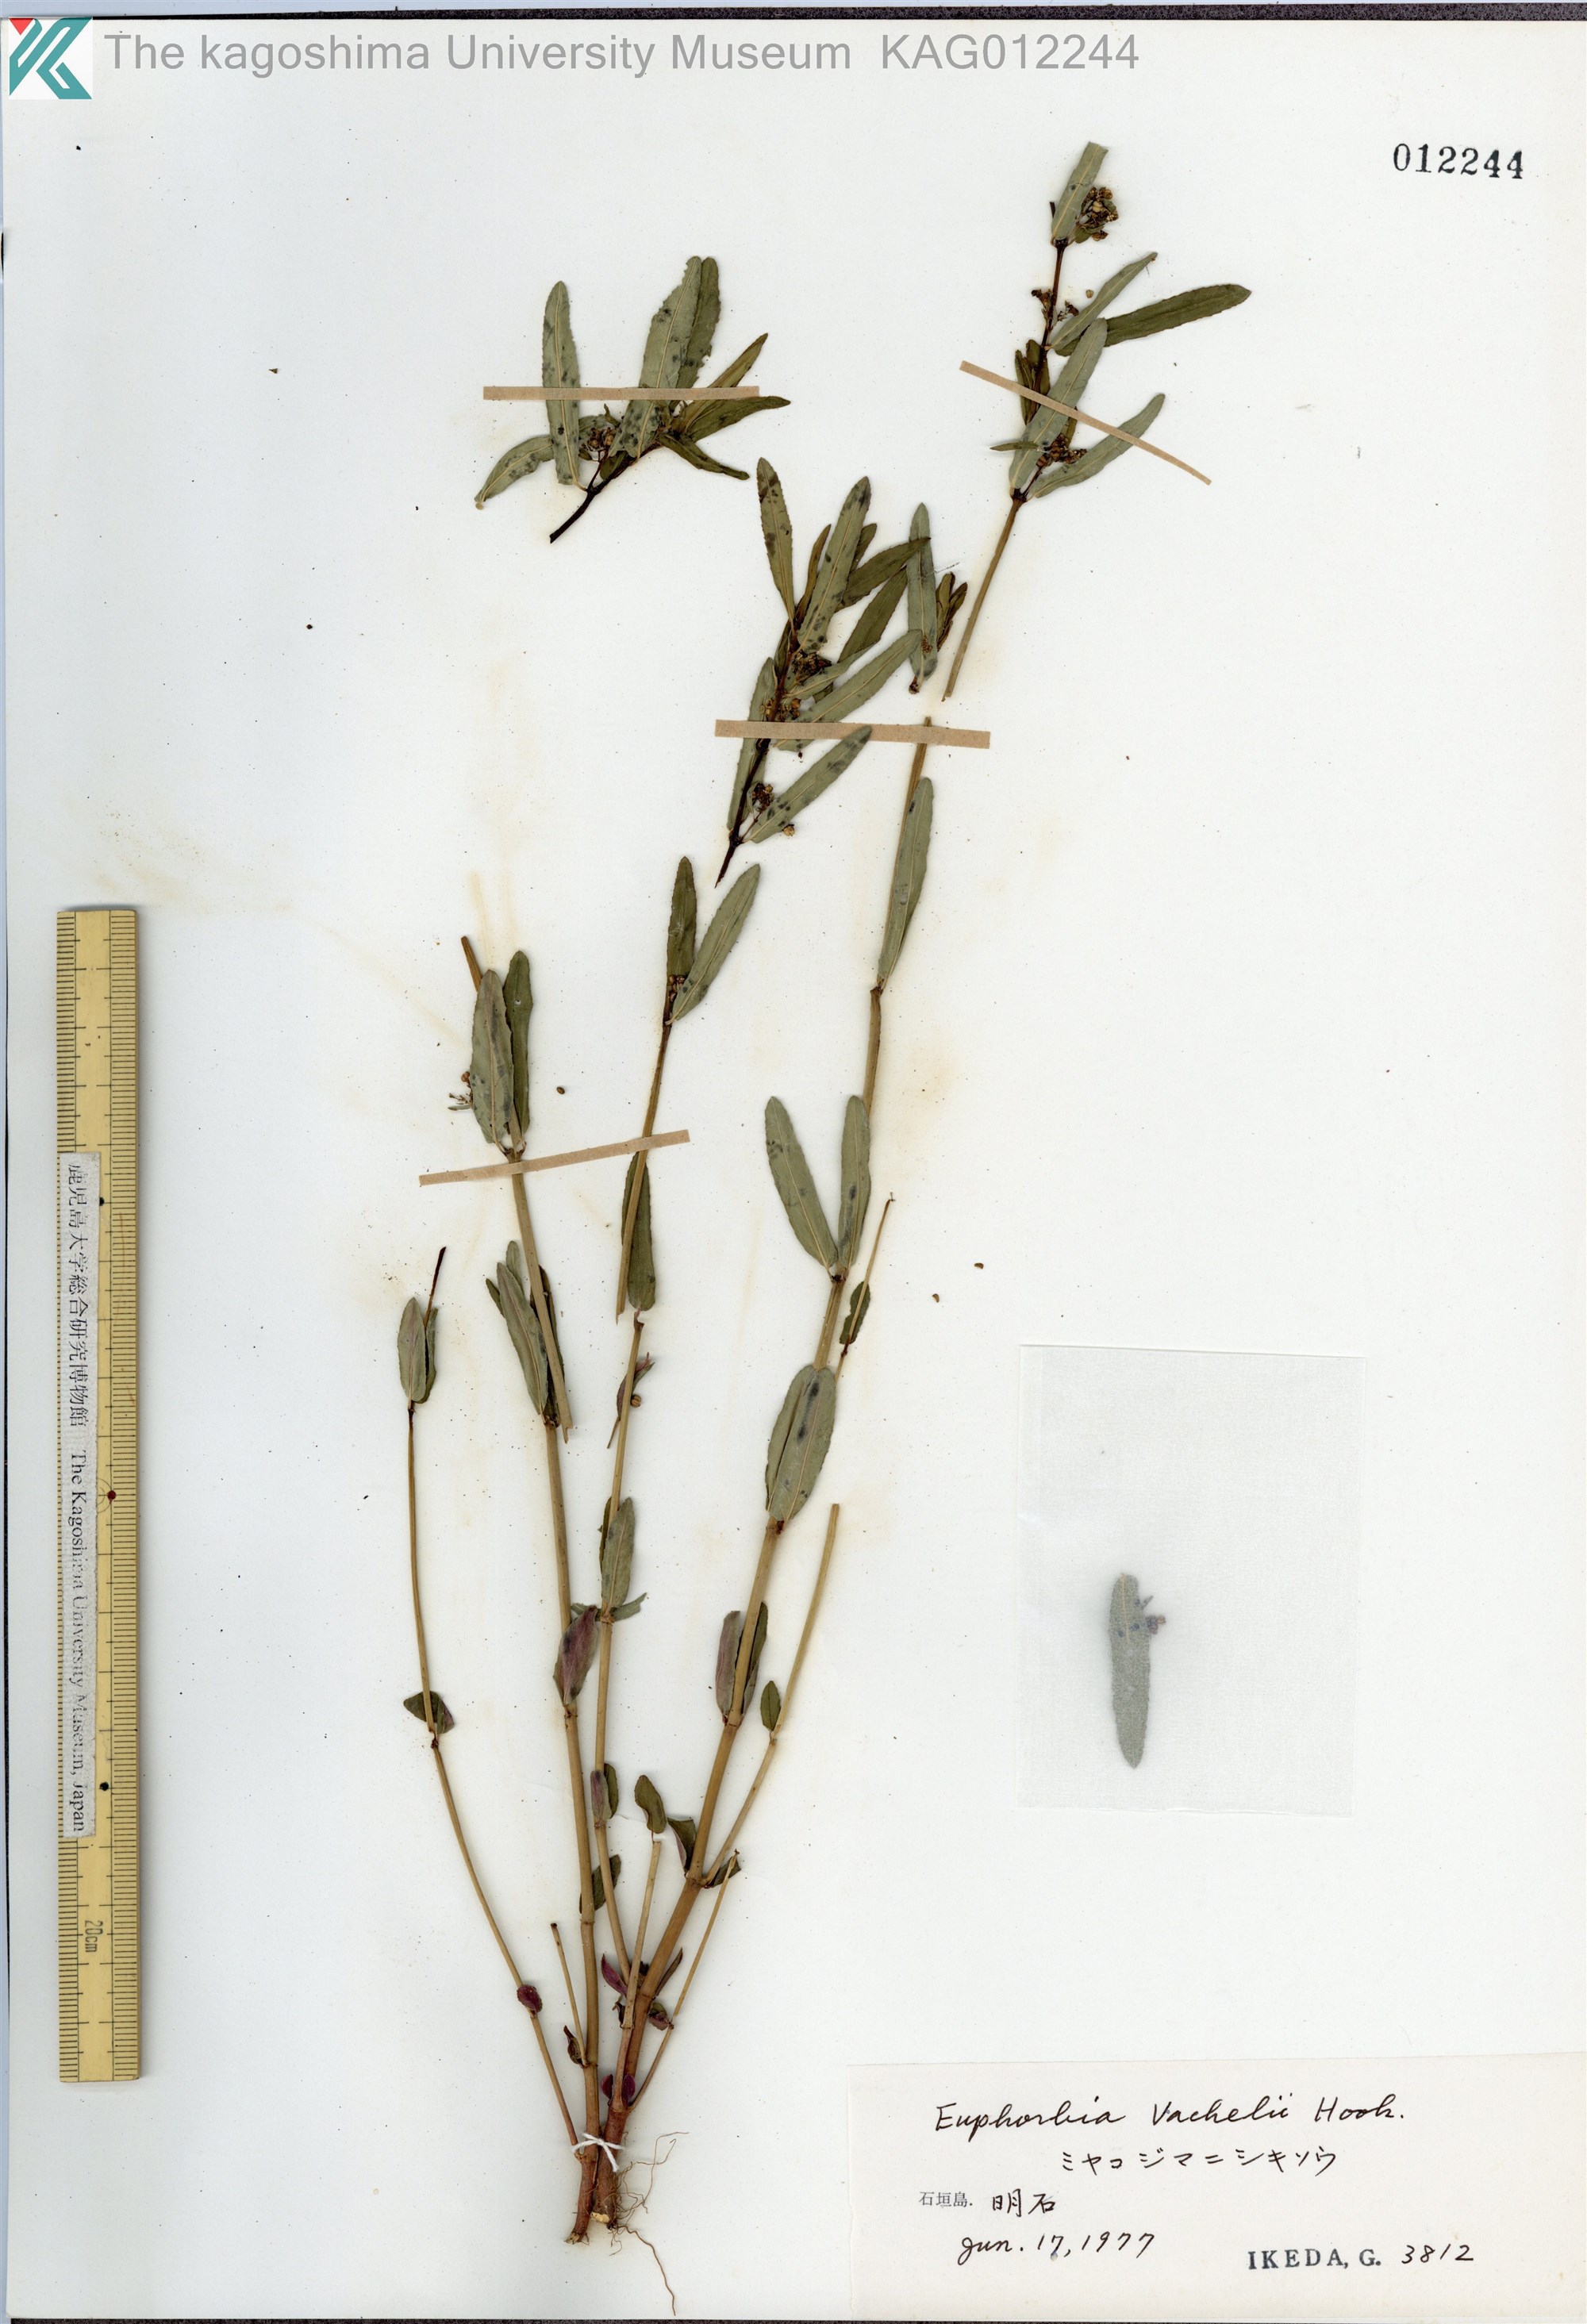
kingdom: Plantae
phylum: Tracheophyta
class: Magnoliopsida
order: Malpighiales
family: Euphorbiaceae
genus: Euphorbia
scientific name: Euphorbia bifida
